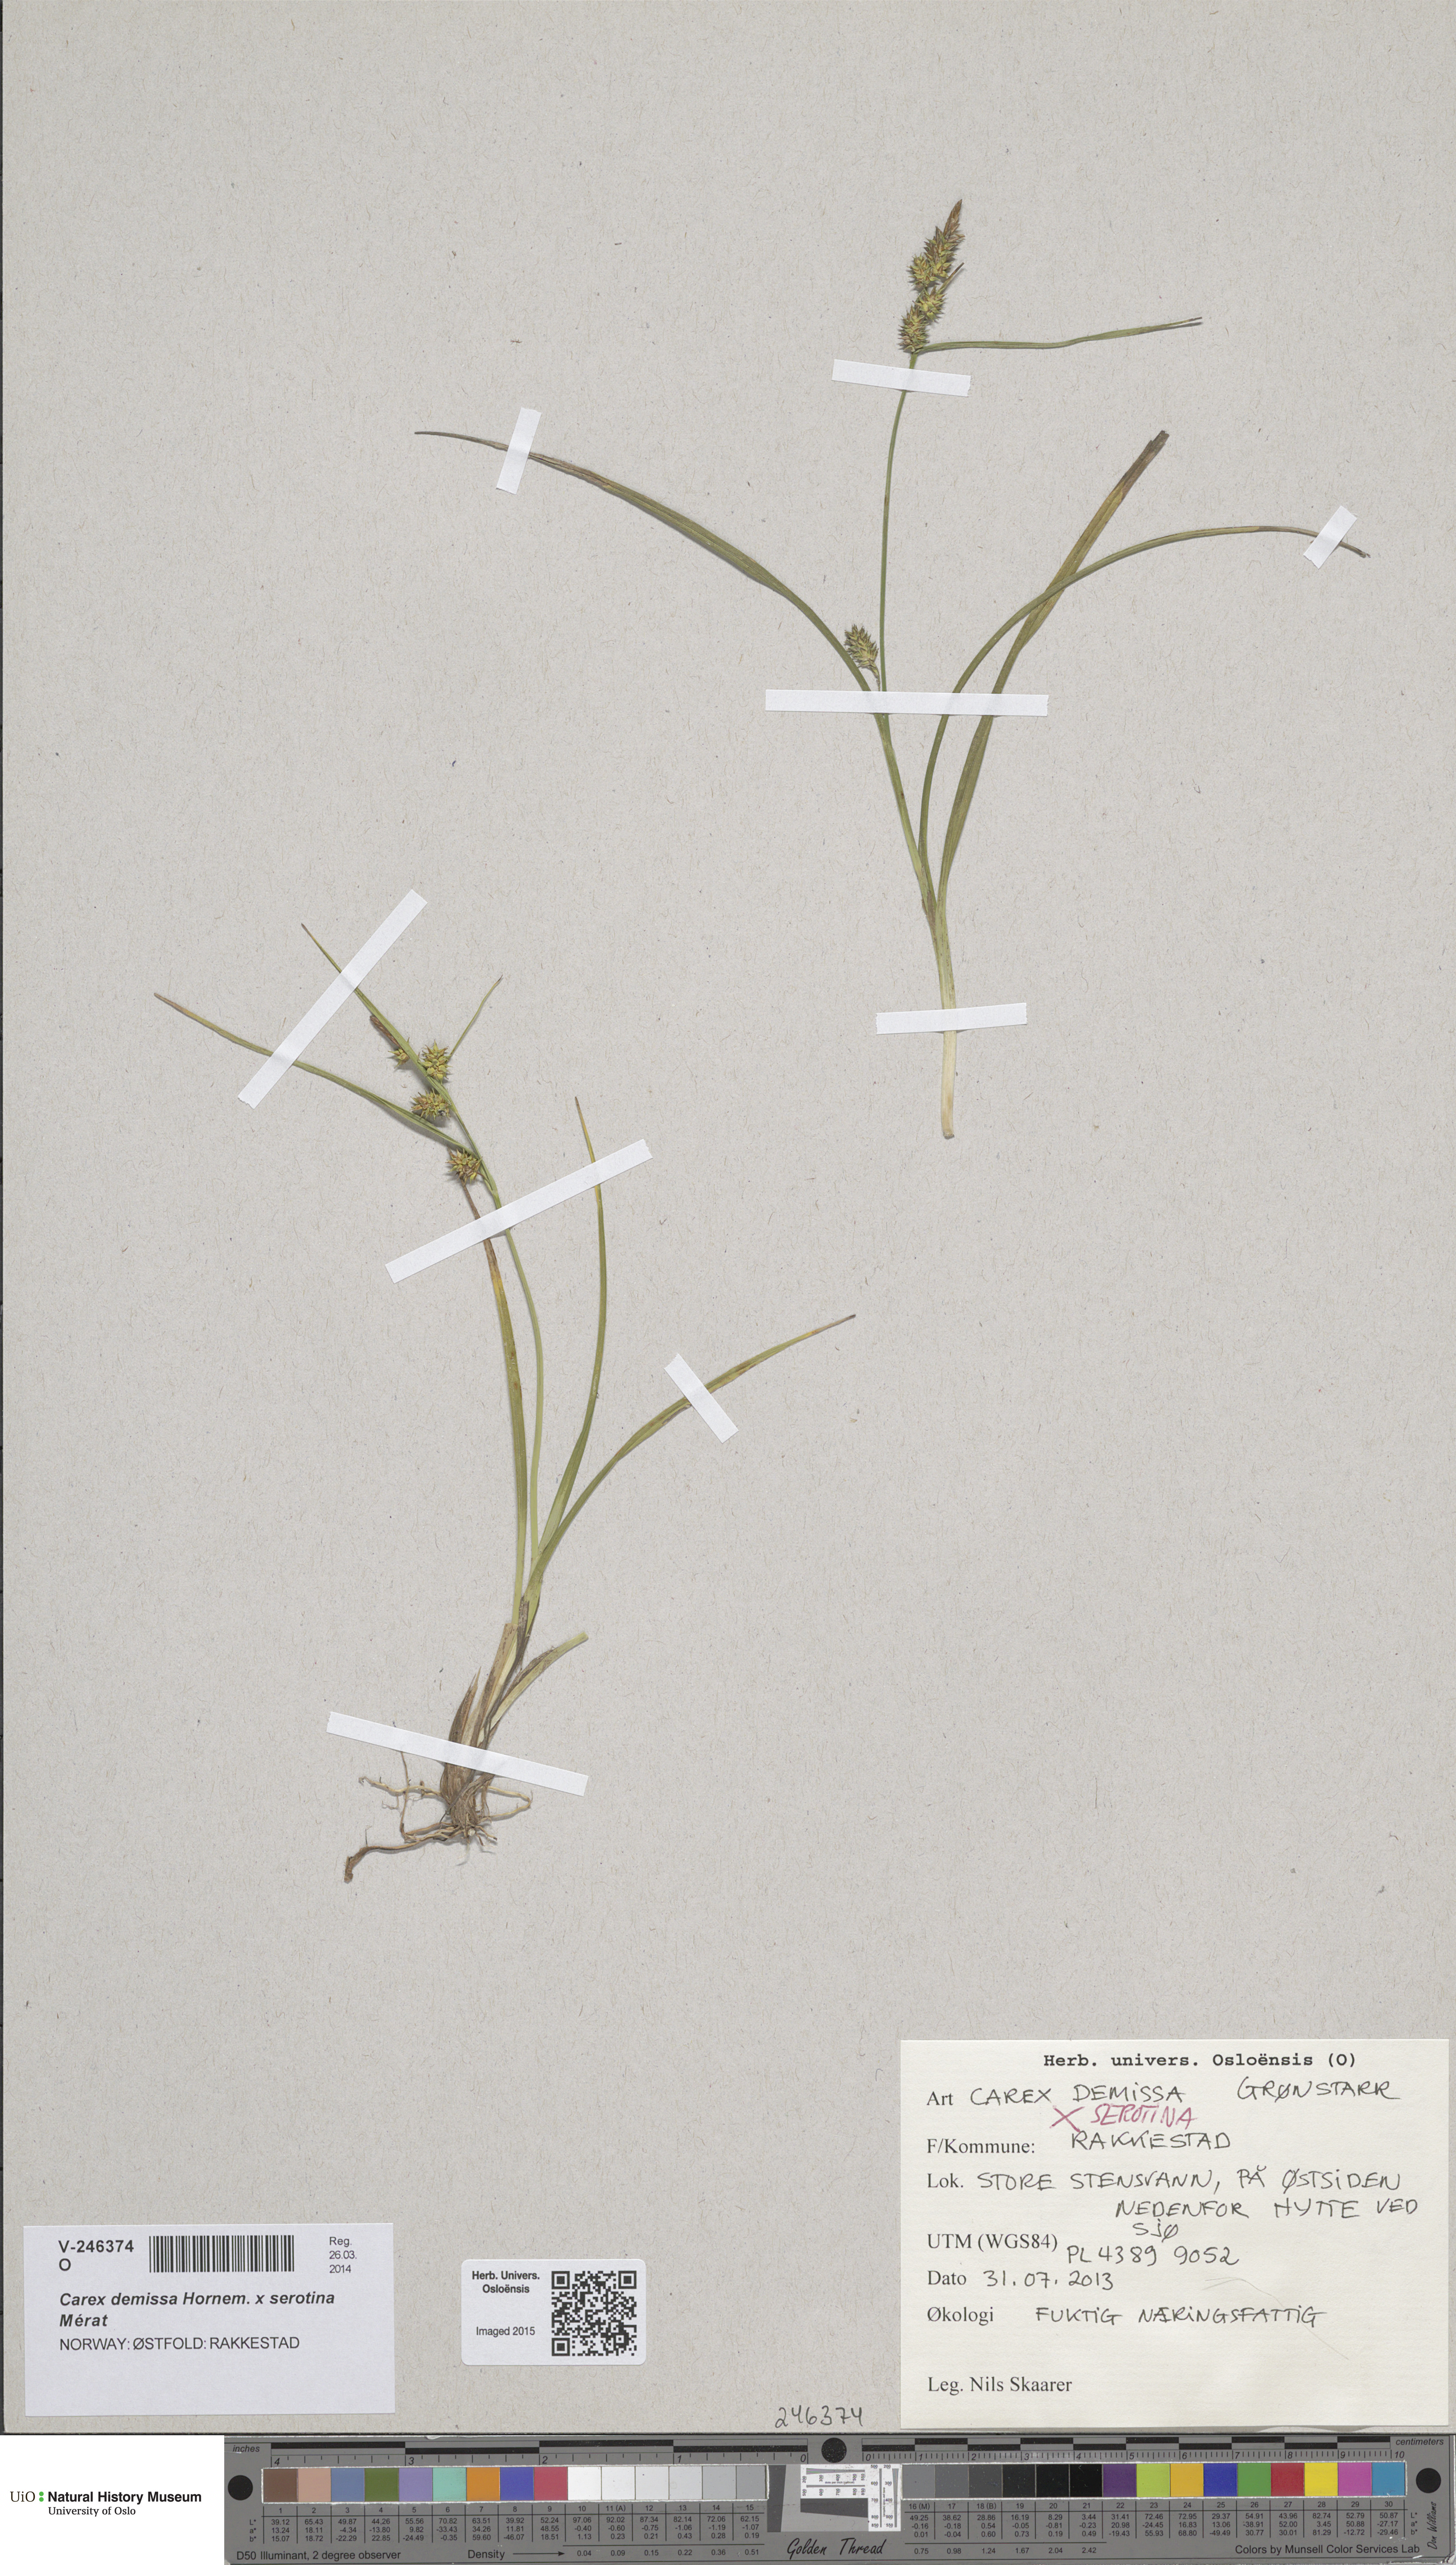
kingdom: Plantae
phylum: Tracheophyta
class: Liliopsida
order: Poales
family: Cyperaceae
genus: Carex
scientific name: Carex
